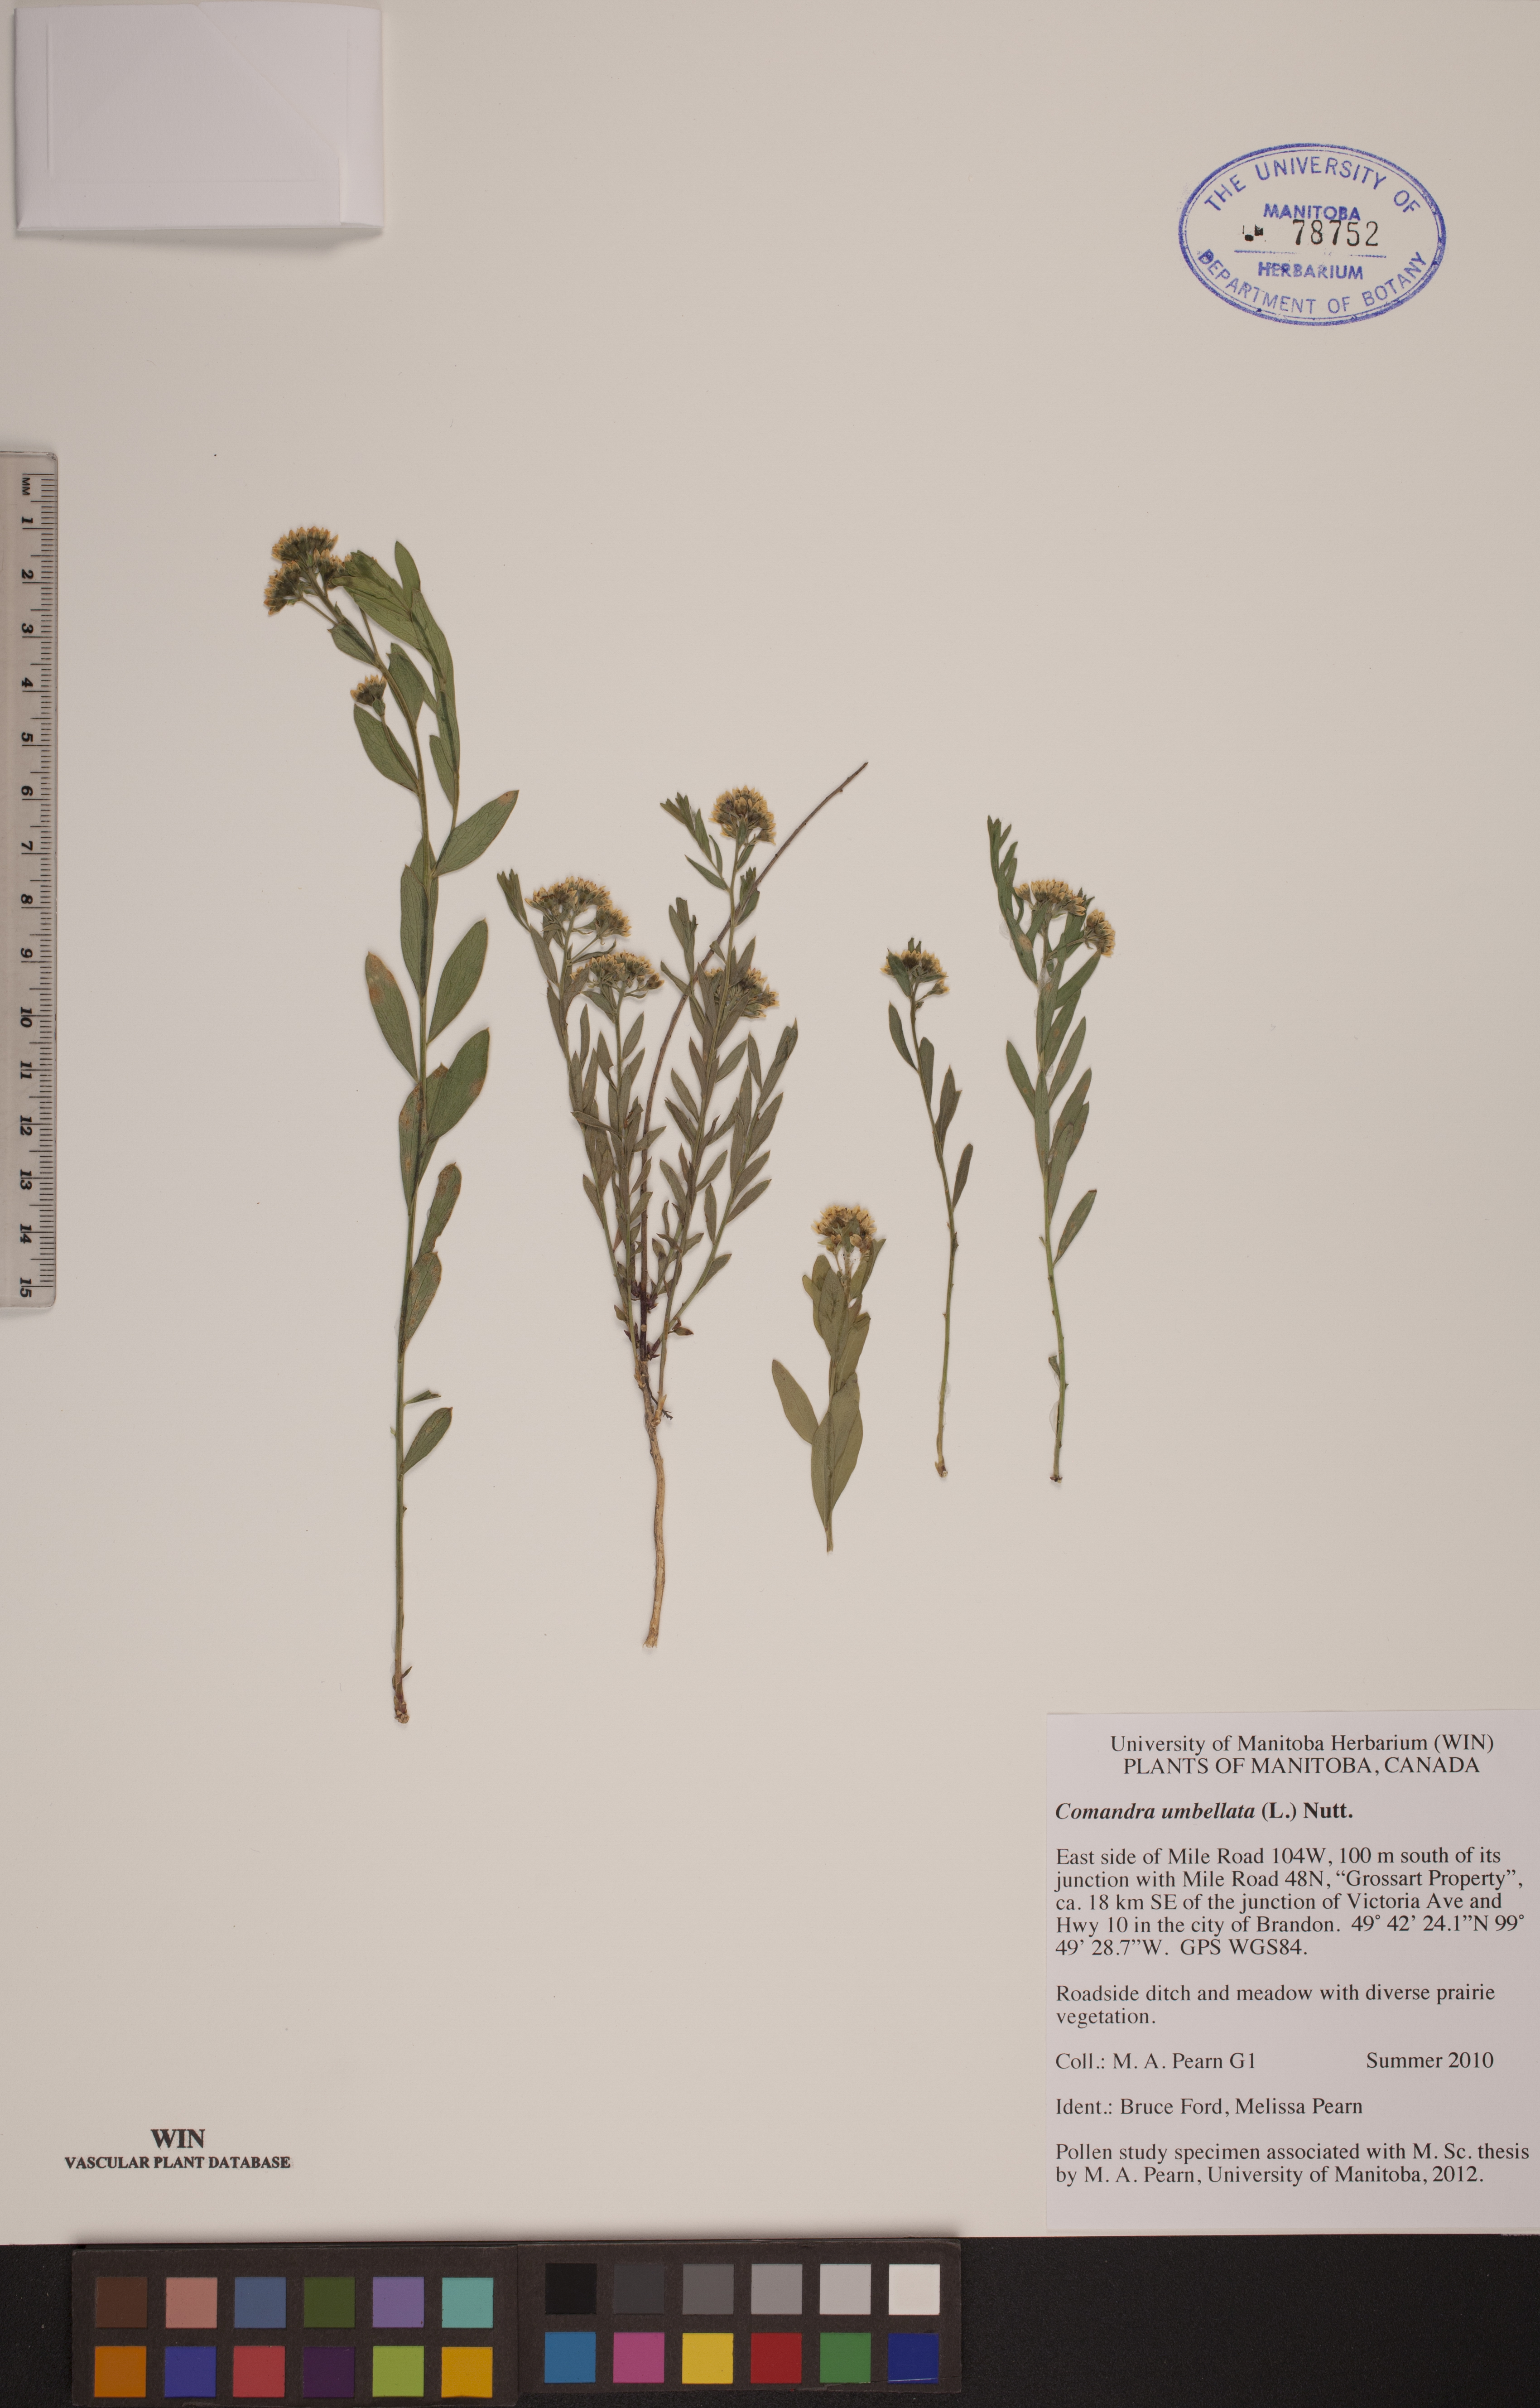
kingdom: Plantae
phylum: Tracheophyta
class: Magnoliopsida
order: Santalales
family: Comandraceae
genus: Comandra
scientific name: Comandra umbellata
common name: Bastard toadflax
